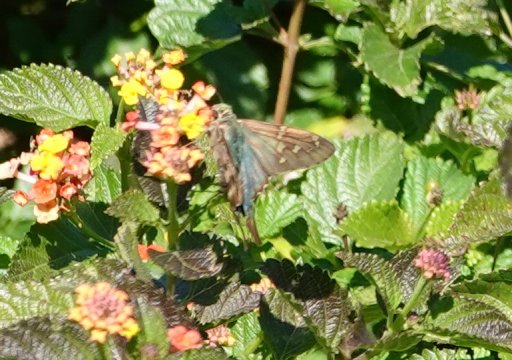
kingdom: Animalia
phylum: Arthropoda
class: Insecta
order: Lepidoptera
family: Hesperiidae
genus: Urbanus
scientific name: Urbanus proteus
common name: Long-tailed Skipper
